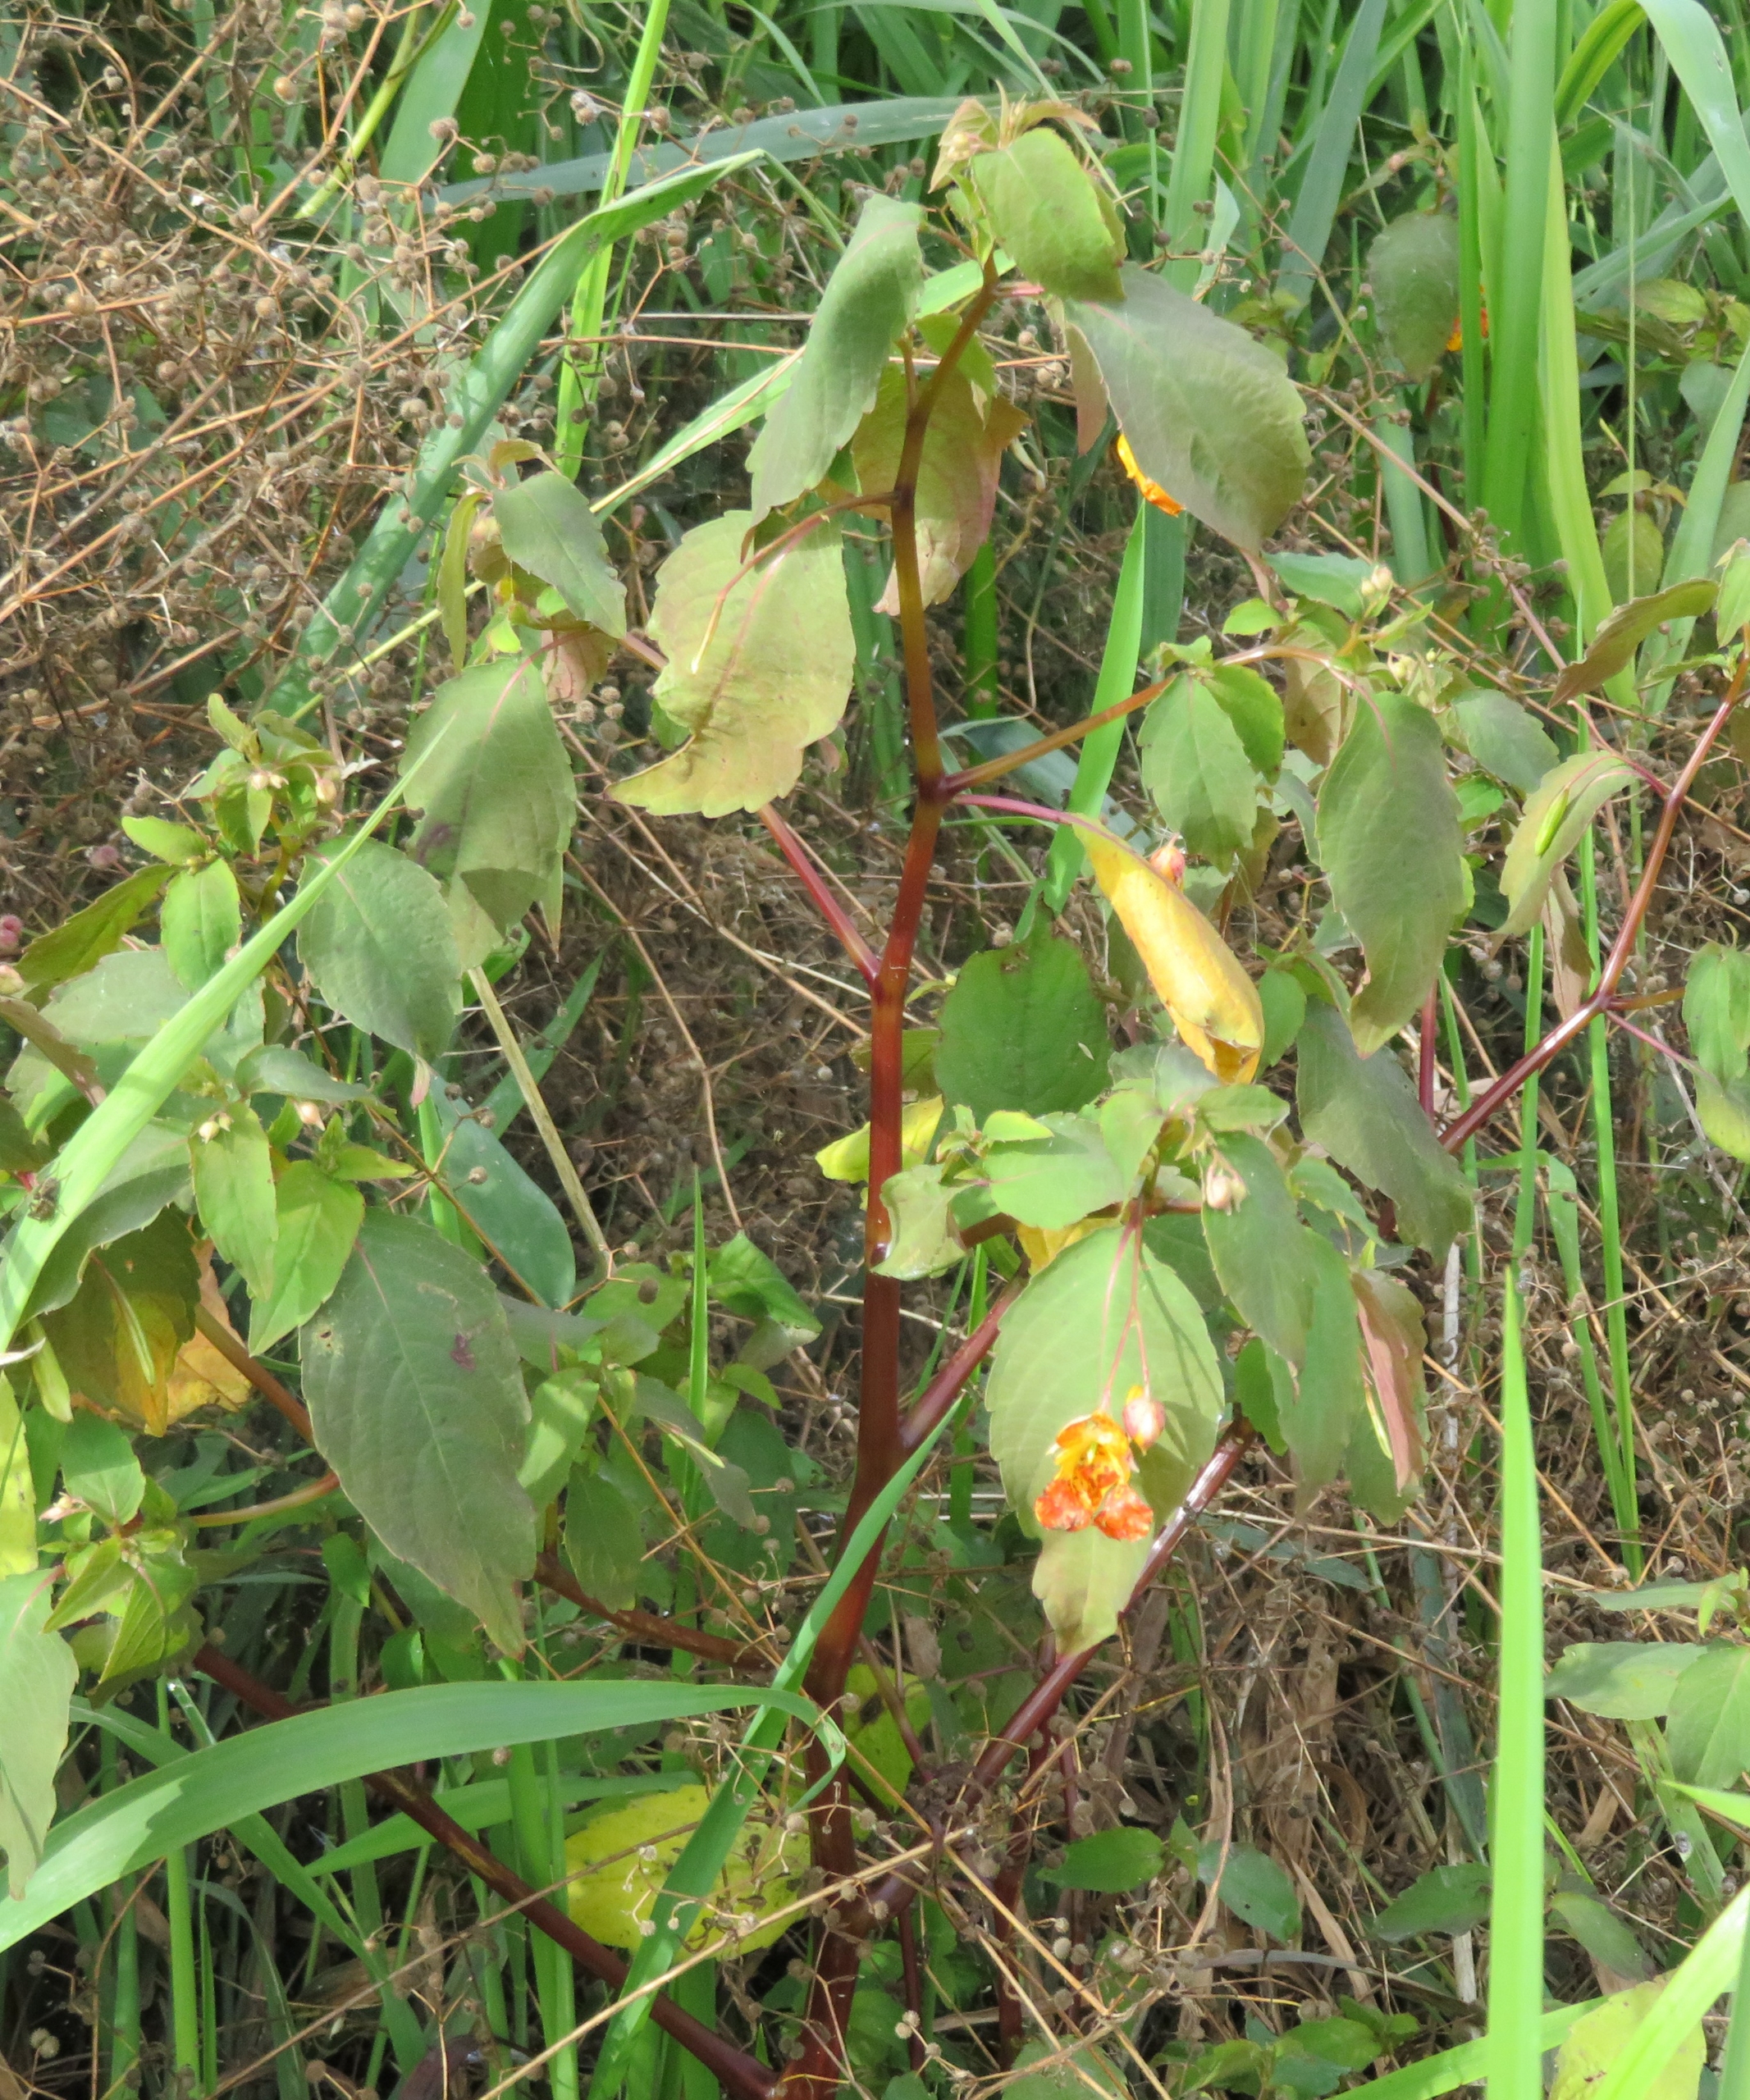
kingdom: Plantae
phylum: Tracheophyta
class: Magnoliopsida
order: Ericales
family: Balsaminaceae
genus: Impatiens
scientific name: Impatiens capensis
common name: Orange-balsamin
